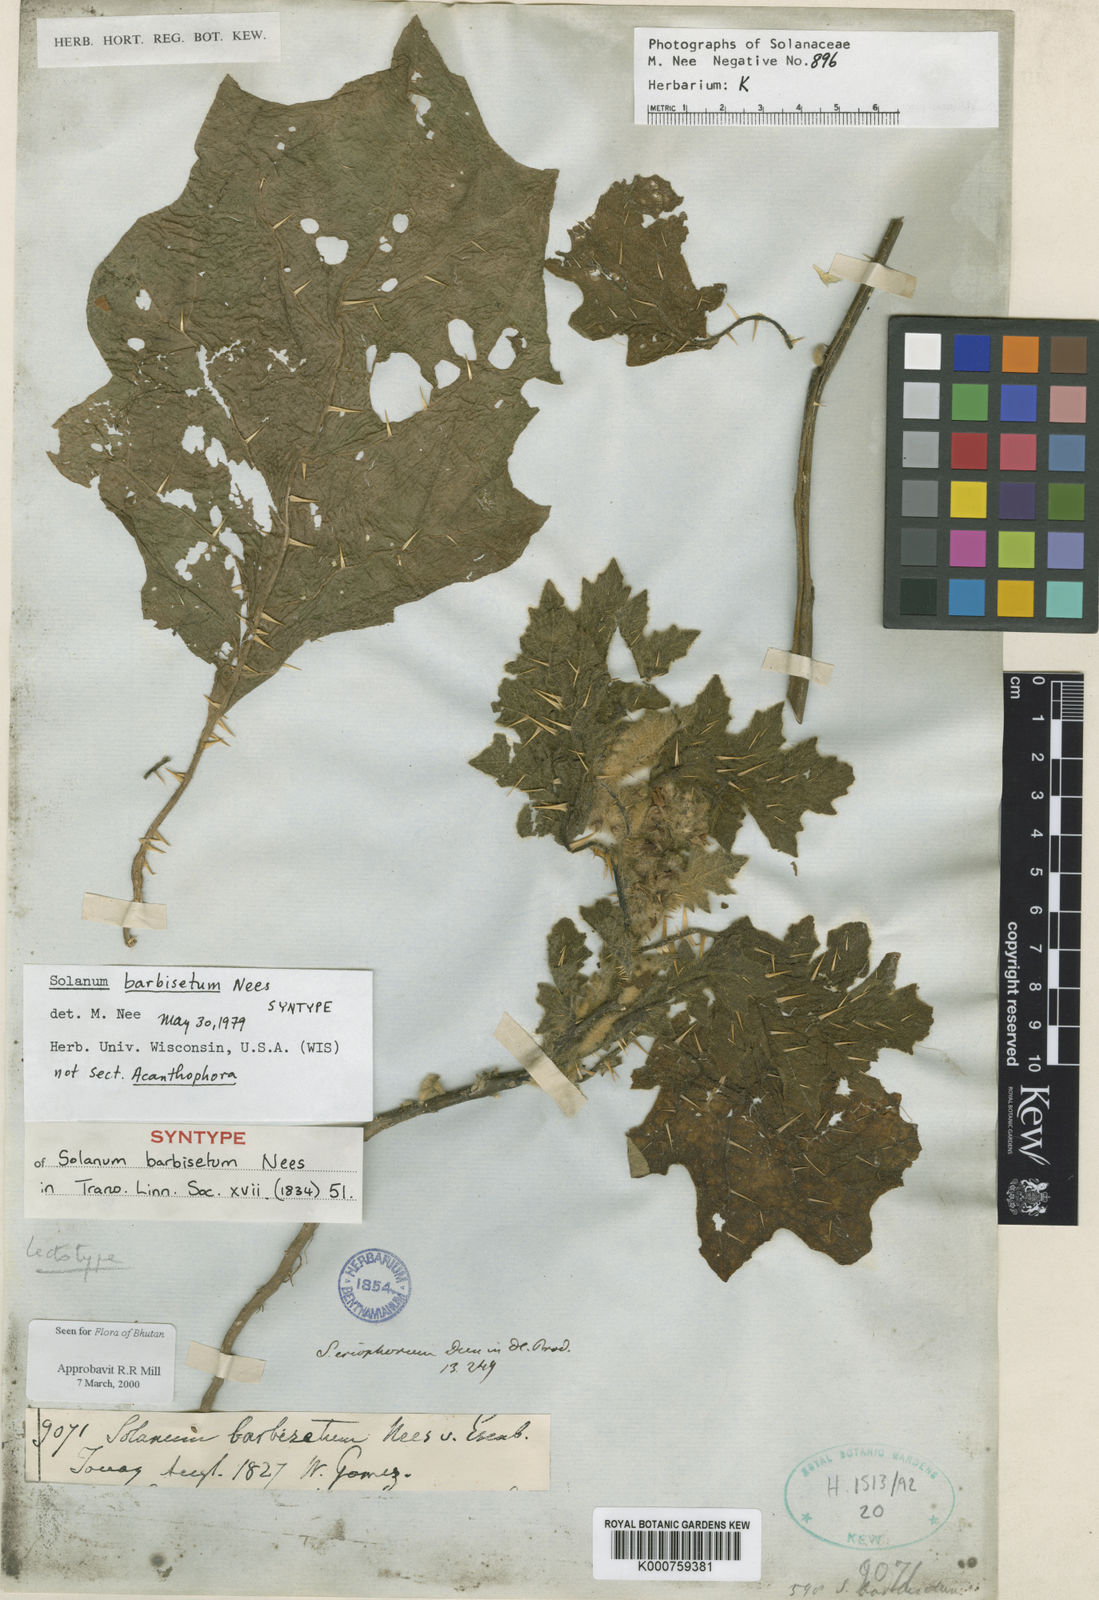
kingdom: Plantae
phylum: Tracheophyta
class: Magnoliopsida
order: Solanales
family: Solanaceae
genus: Solanum
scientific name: Solanum barbisetum
